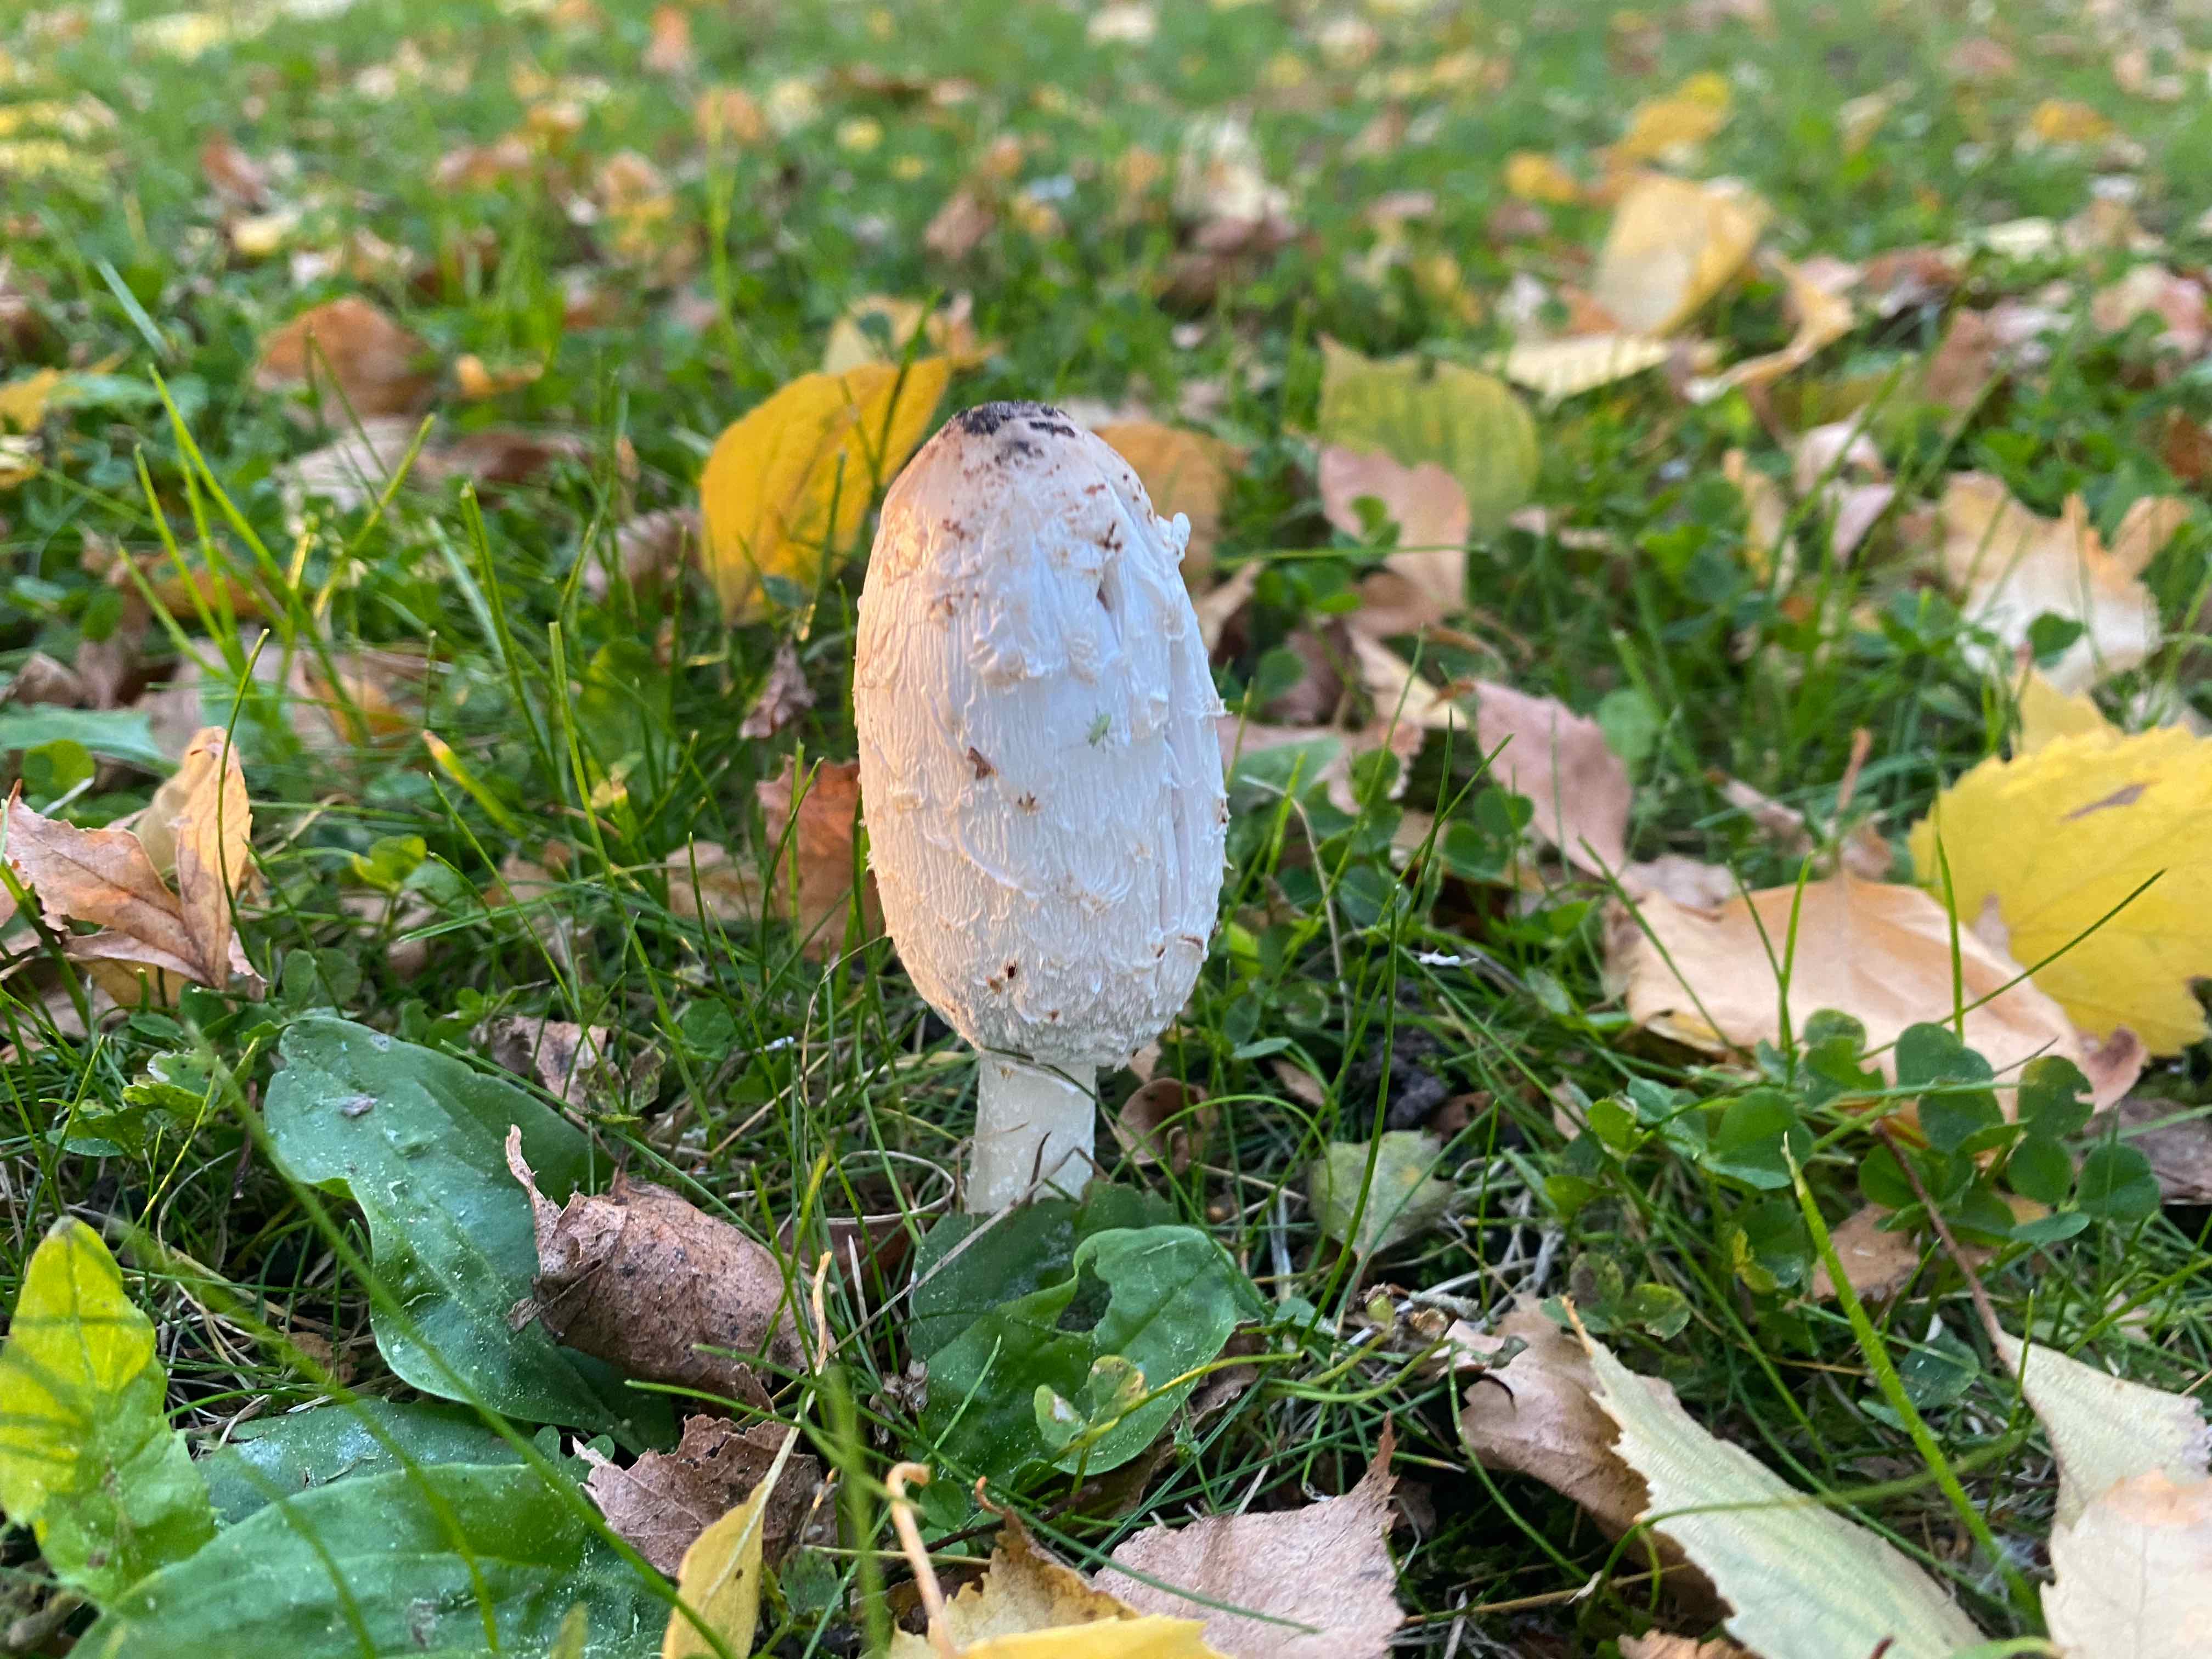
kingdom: Fungi
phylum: Basidiomycota
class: Agaricomycetes
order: Agaricales
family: Agaricaceae
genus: Coprinus
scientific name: Coprinus comatus
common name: stor parykhat
